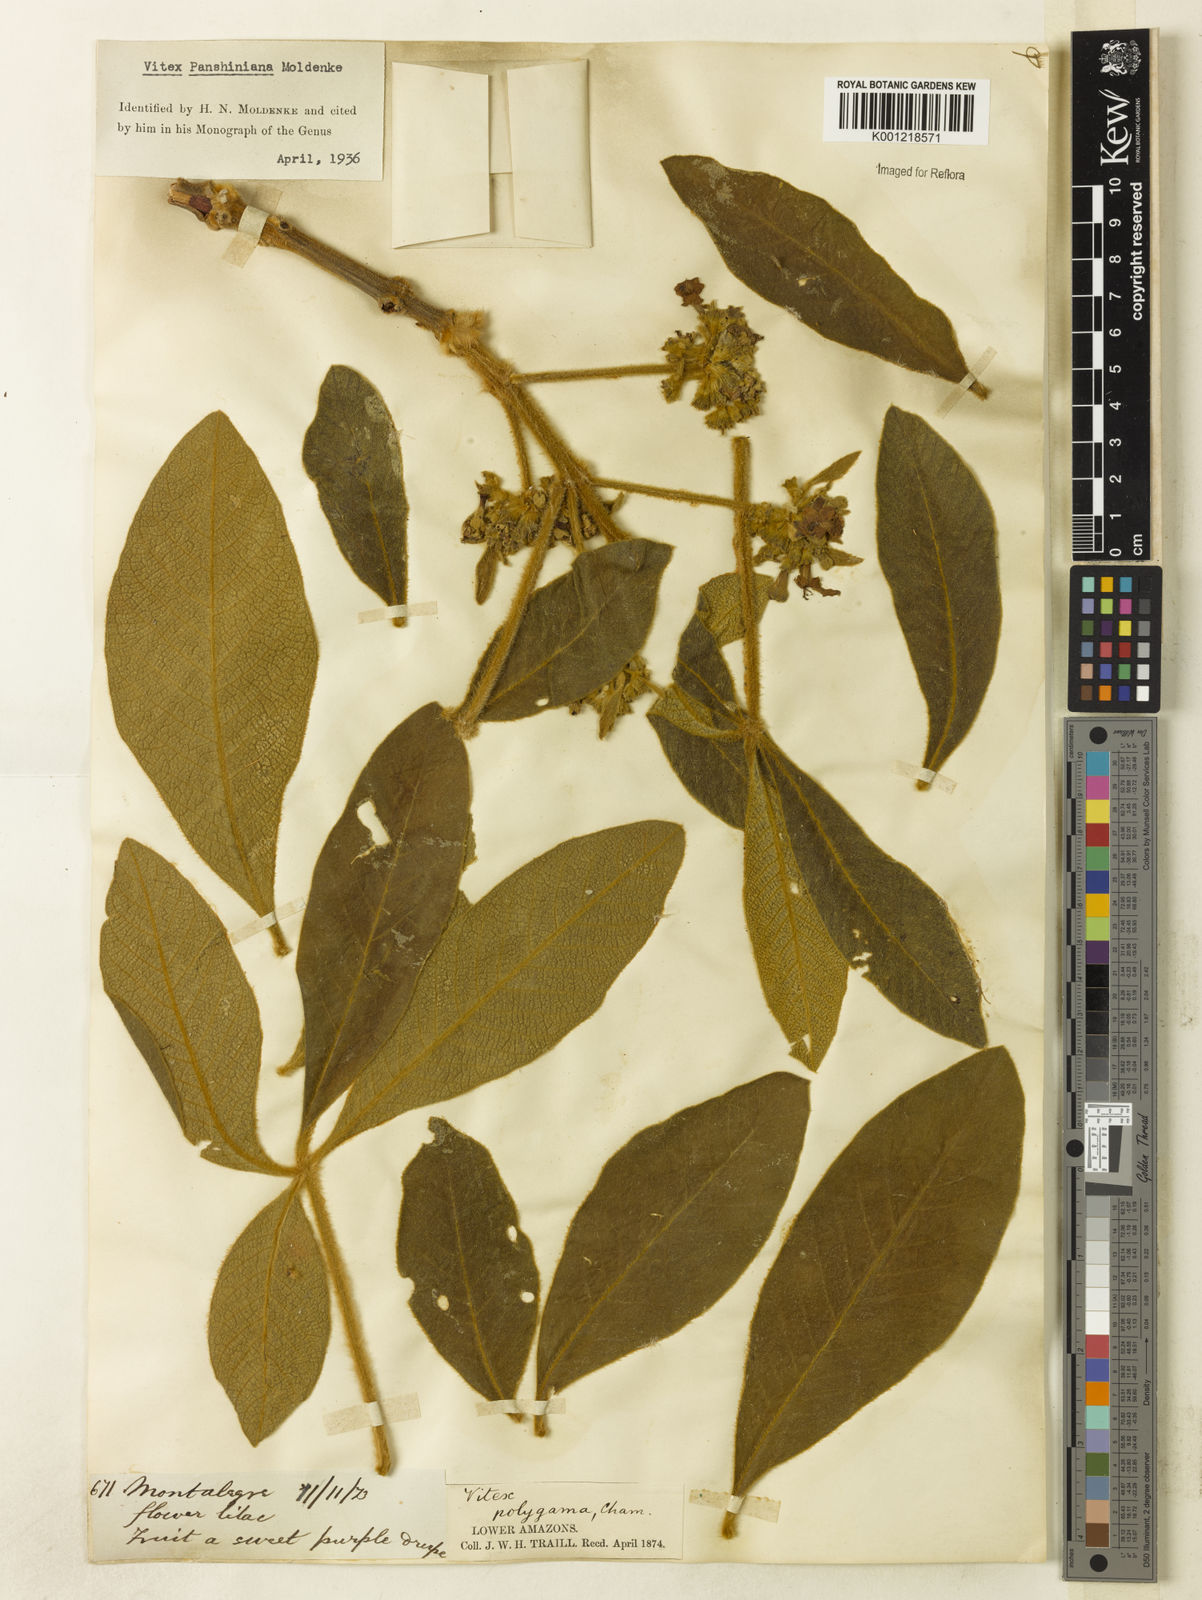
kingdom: Plantae
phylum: Tracheophyta
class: Magnoliopsida
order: Lamiales
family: Lamiaceae
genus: Vitex
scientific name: Vitex panshiniana
